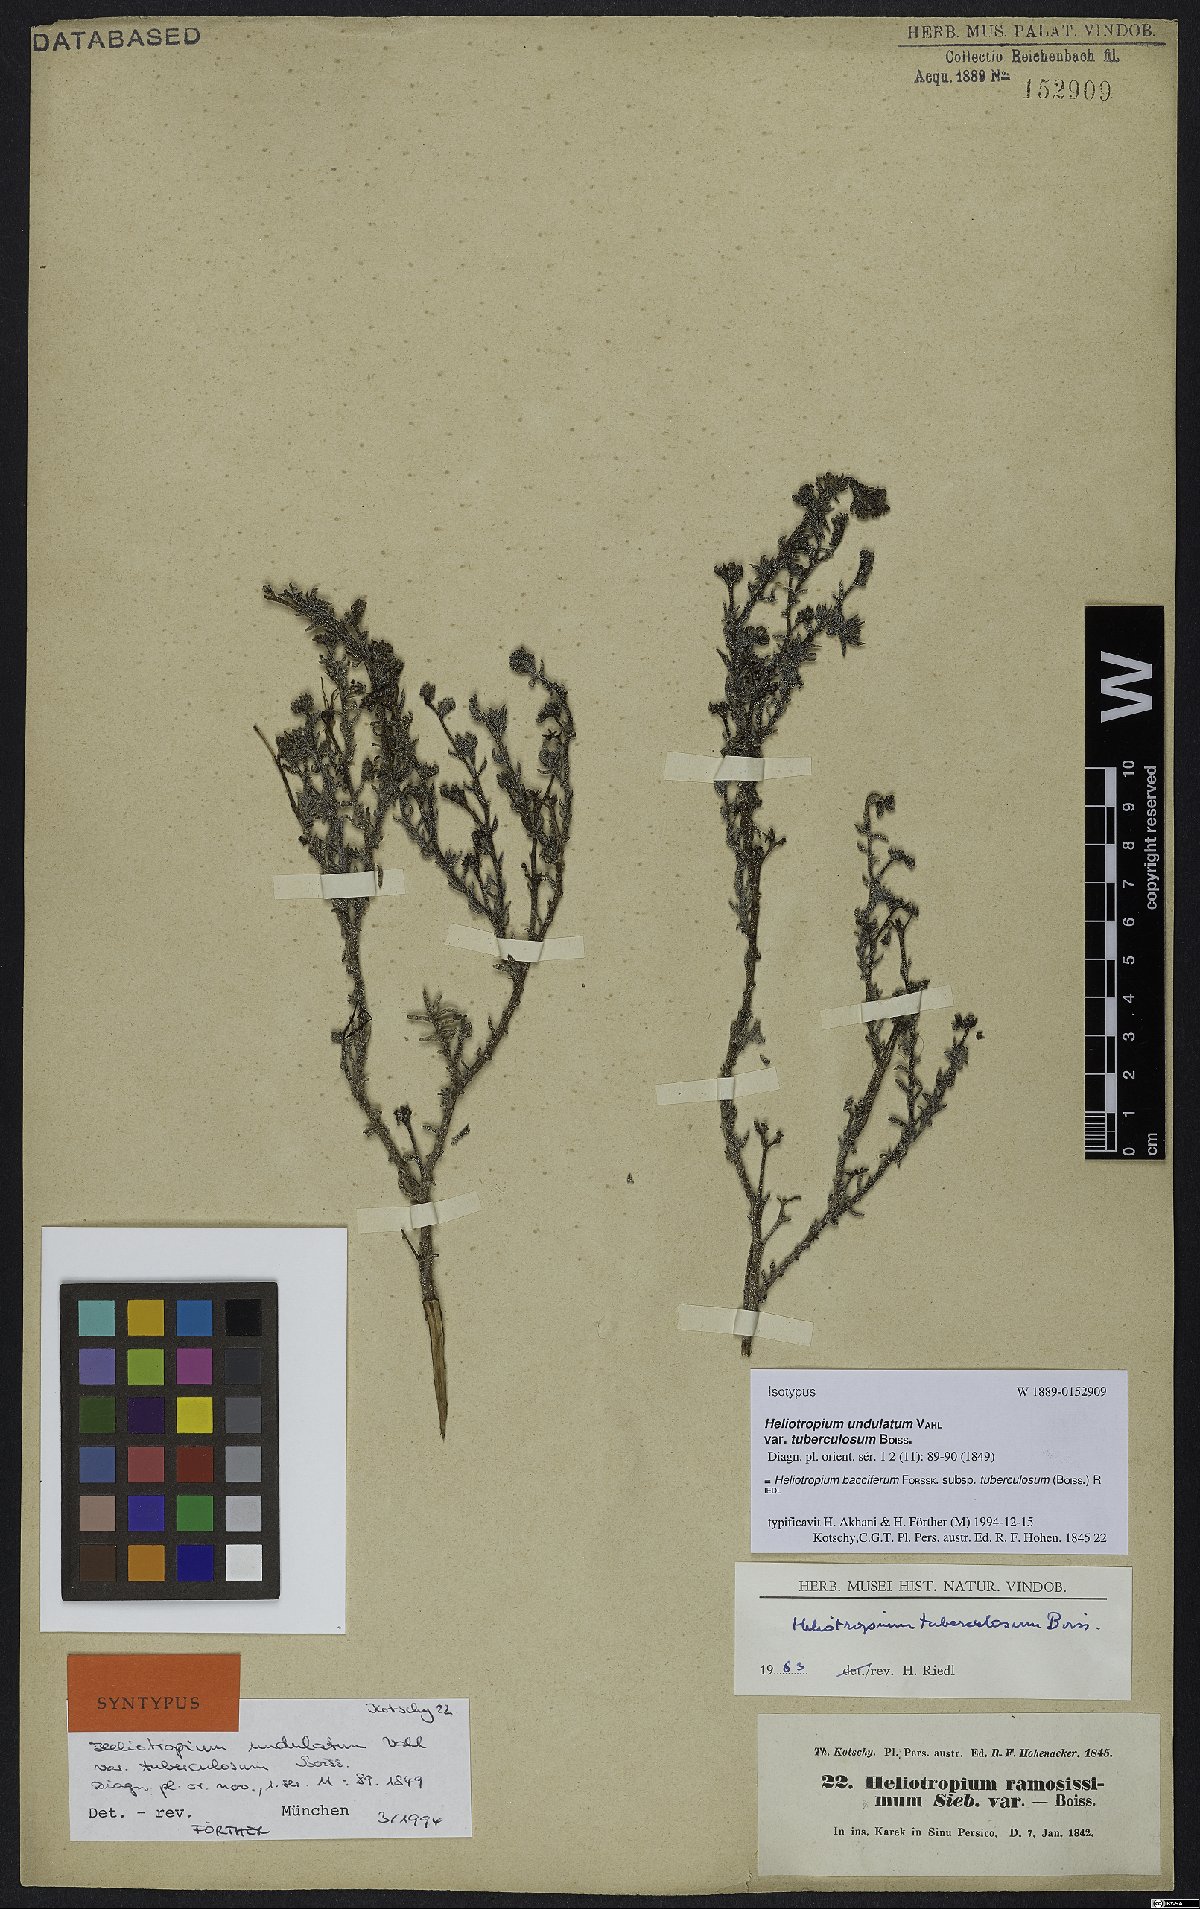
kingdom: Plantae
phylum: Tracheophyta
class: Magnoliopsida
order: Boraginales
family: Heliotropiaceae
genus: Heliotropium
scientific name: Heliotropium bacciferum
